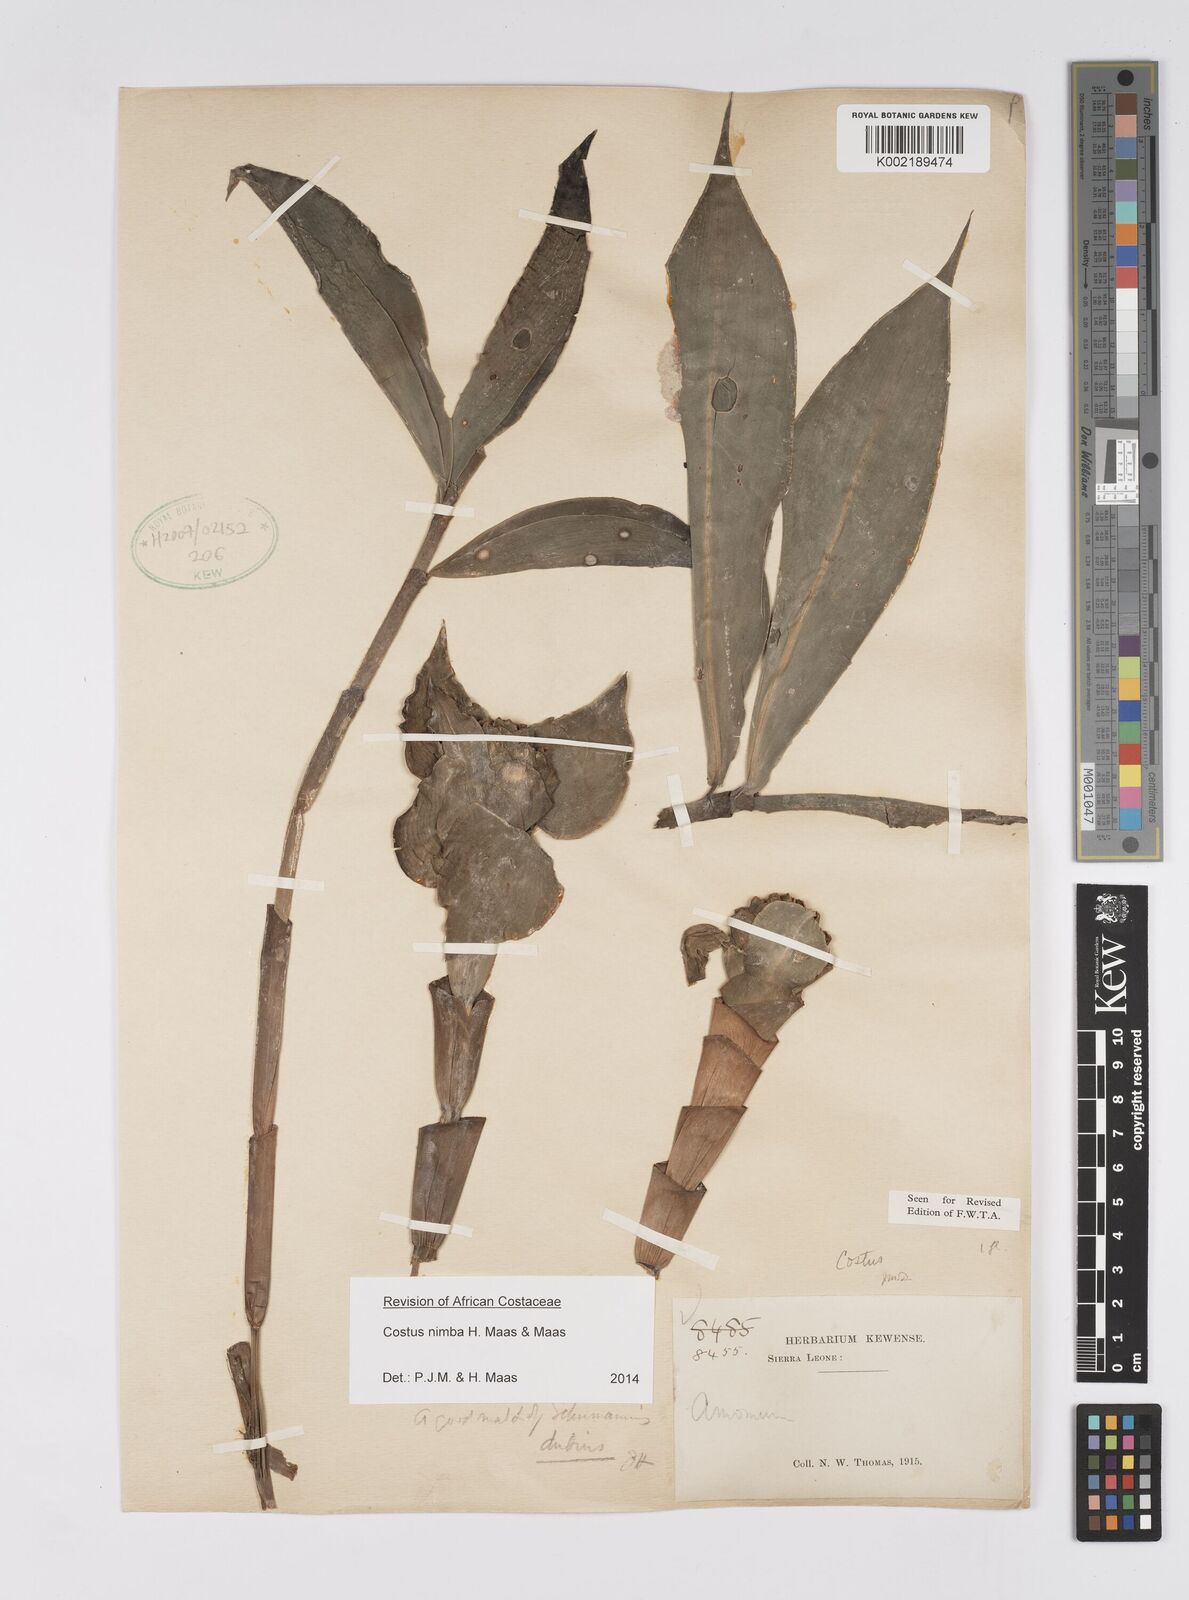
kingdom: Plantae
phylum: Tracheophyta
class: Liliopsida
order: Zingiberales
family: Costaceae
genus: Costus
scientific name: Costus nimba
